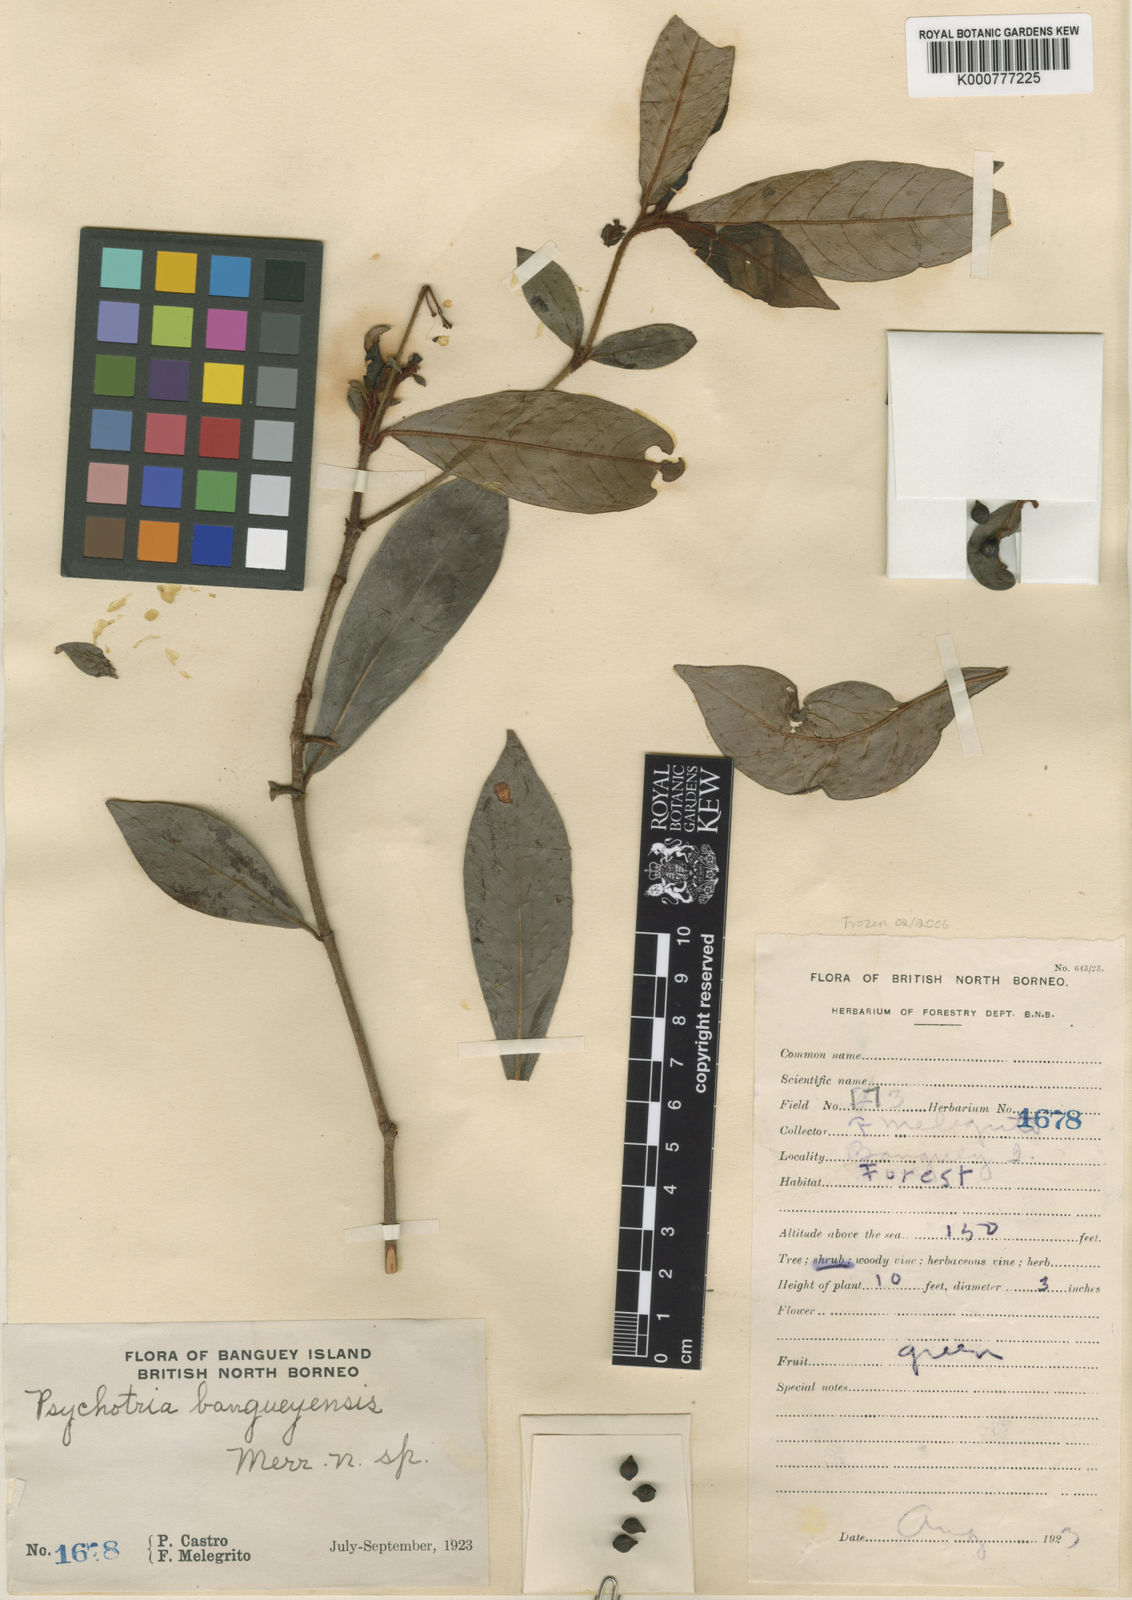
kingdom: Plantae
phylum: Tracheophyta
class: Magnoliopsida
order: Gentianales
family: Rubiaceae
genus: Psychotria
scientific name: Psychotria bangueyensis
